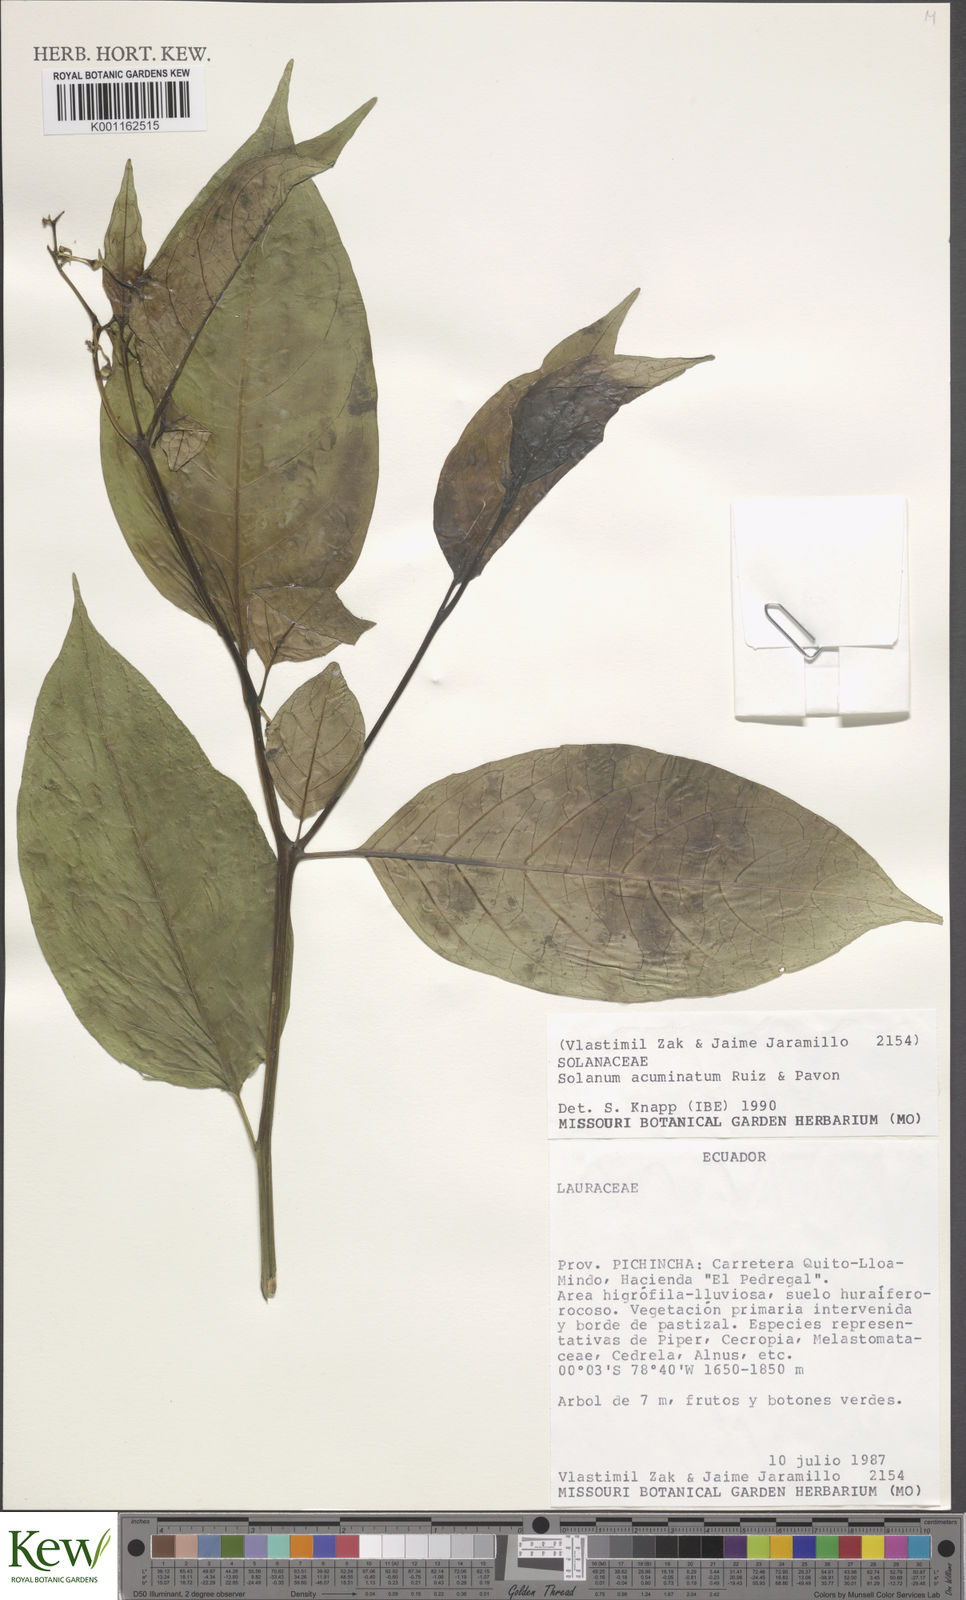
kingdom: Plantae
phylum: Tracheophyta
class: Magnoliopsida
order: Solanales
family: Solanaceae
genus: Solanum
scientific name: Solanum acuminatum
